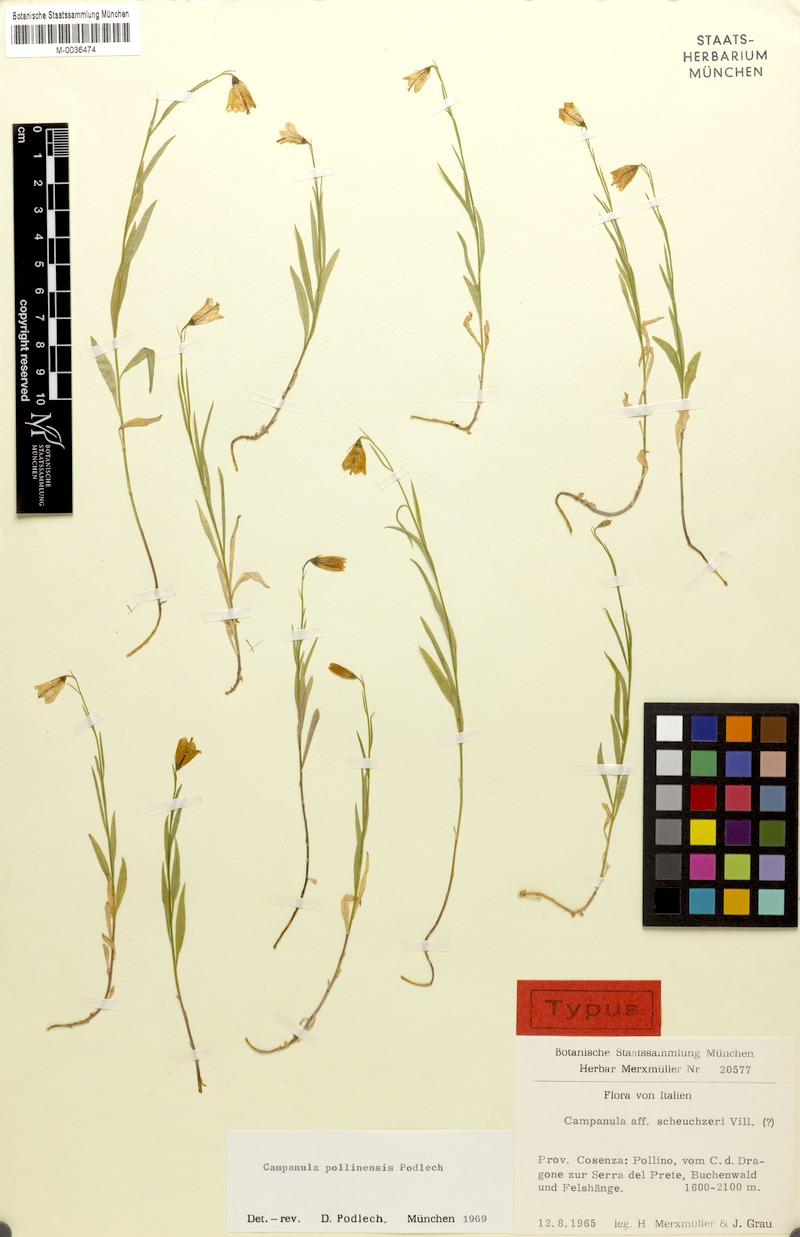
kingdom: Plantae
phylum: Tracheophyta
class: Magnoliopsida
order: Asterales
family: Campanulaceae
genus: Campanula
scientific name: Campanula pollinensis
